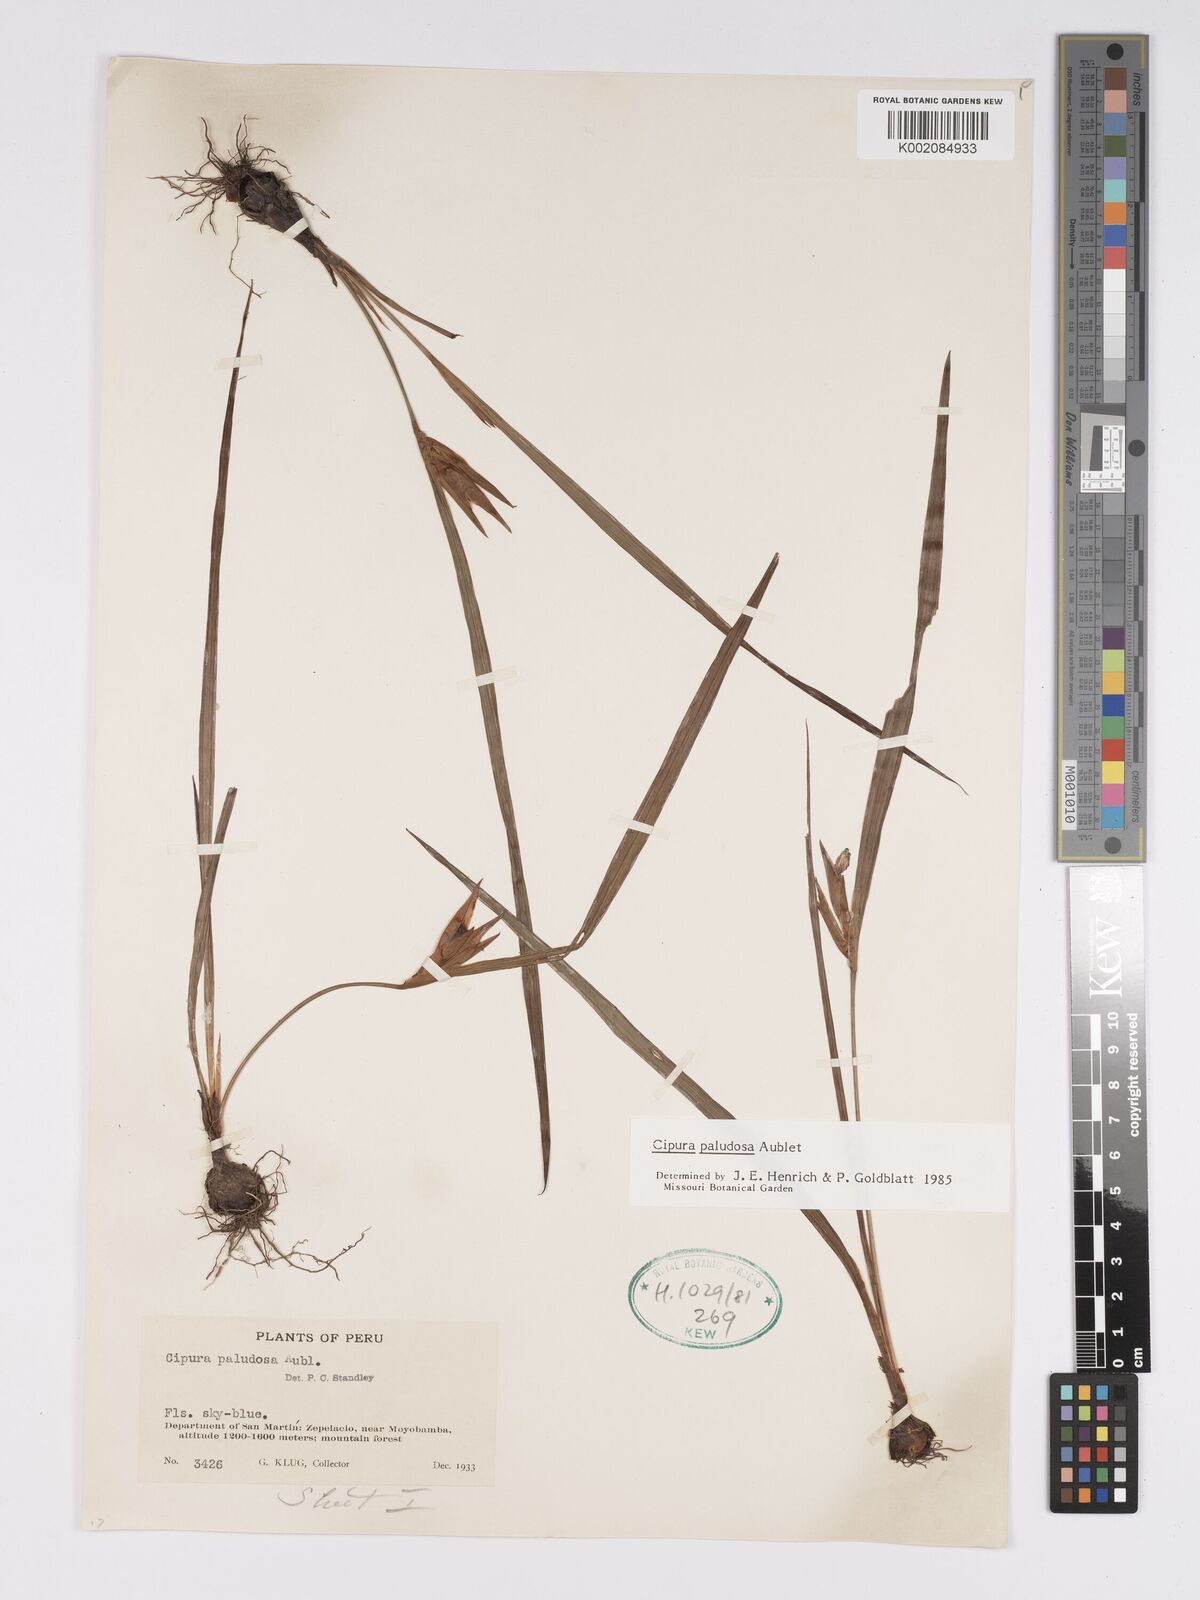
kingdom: Plantae
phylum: Tracheophyta
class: Liliopsida
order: Asparagales
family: Iridaceae
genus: Cipura
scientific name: Cipura paludosa
